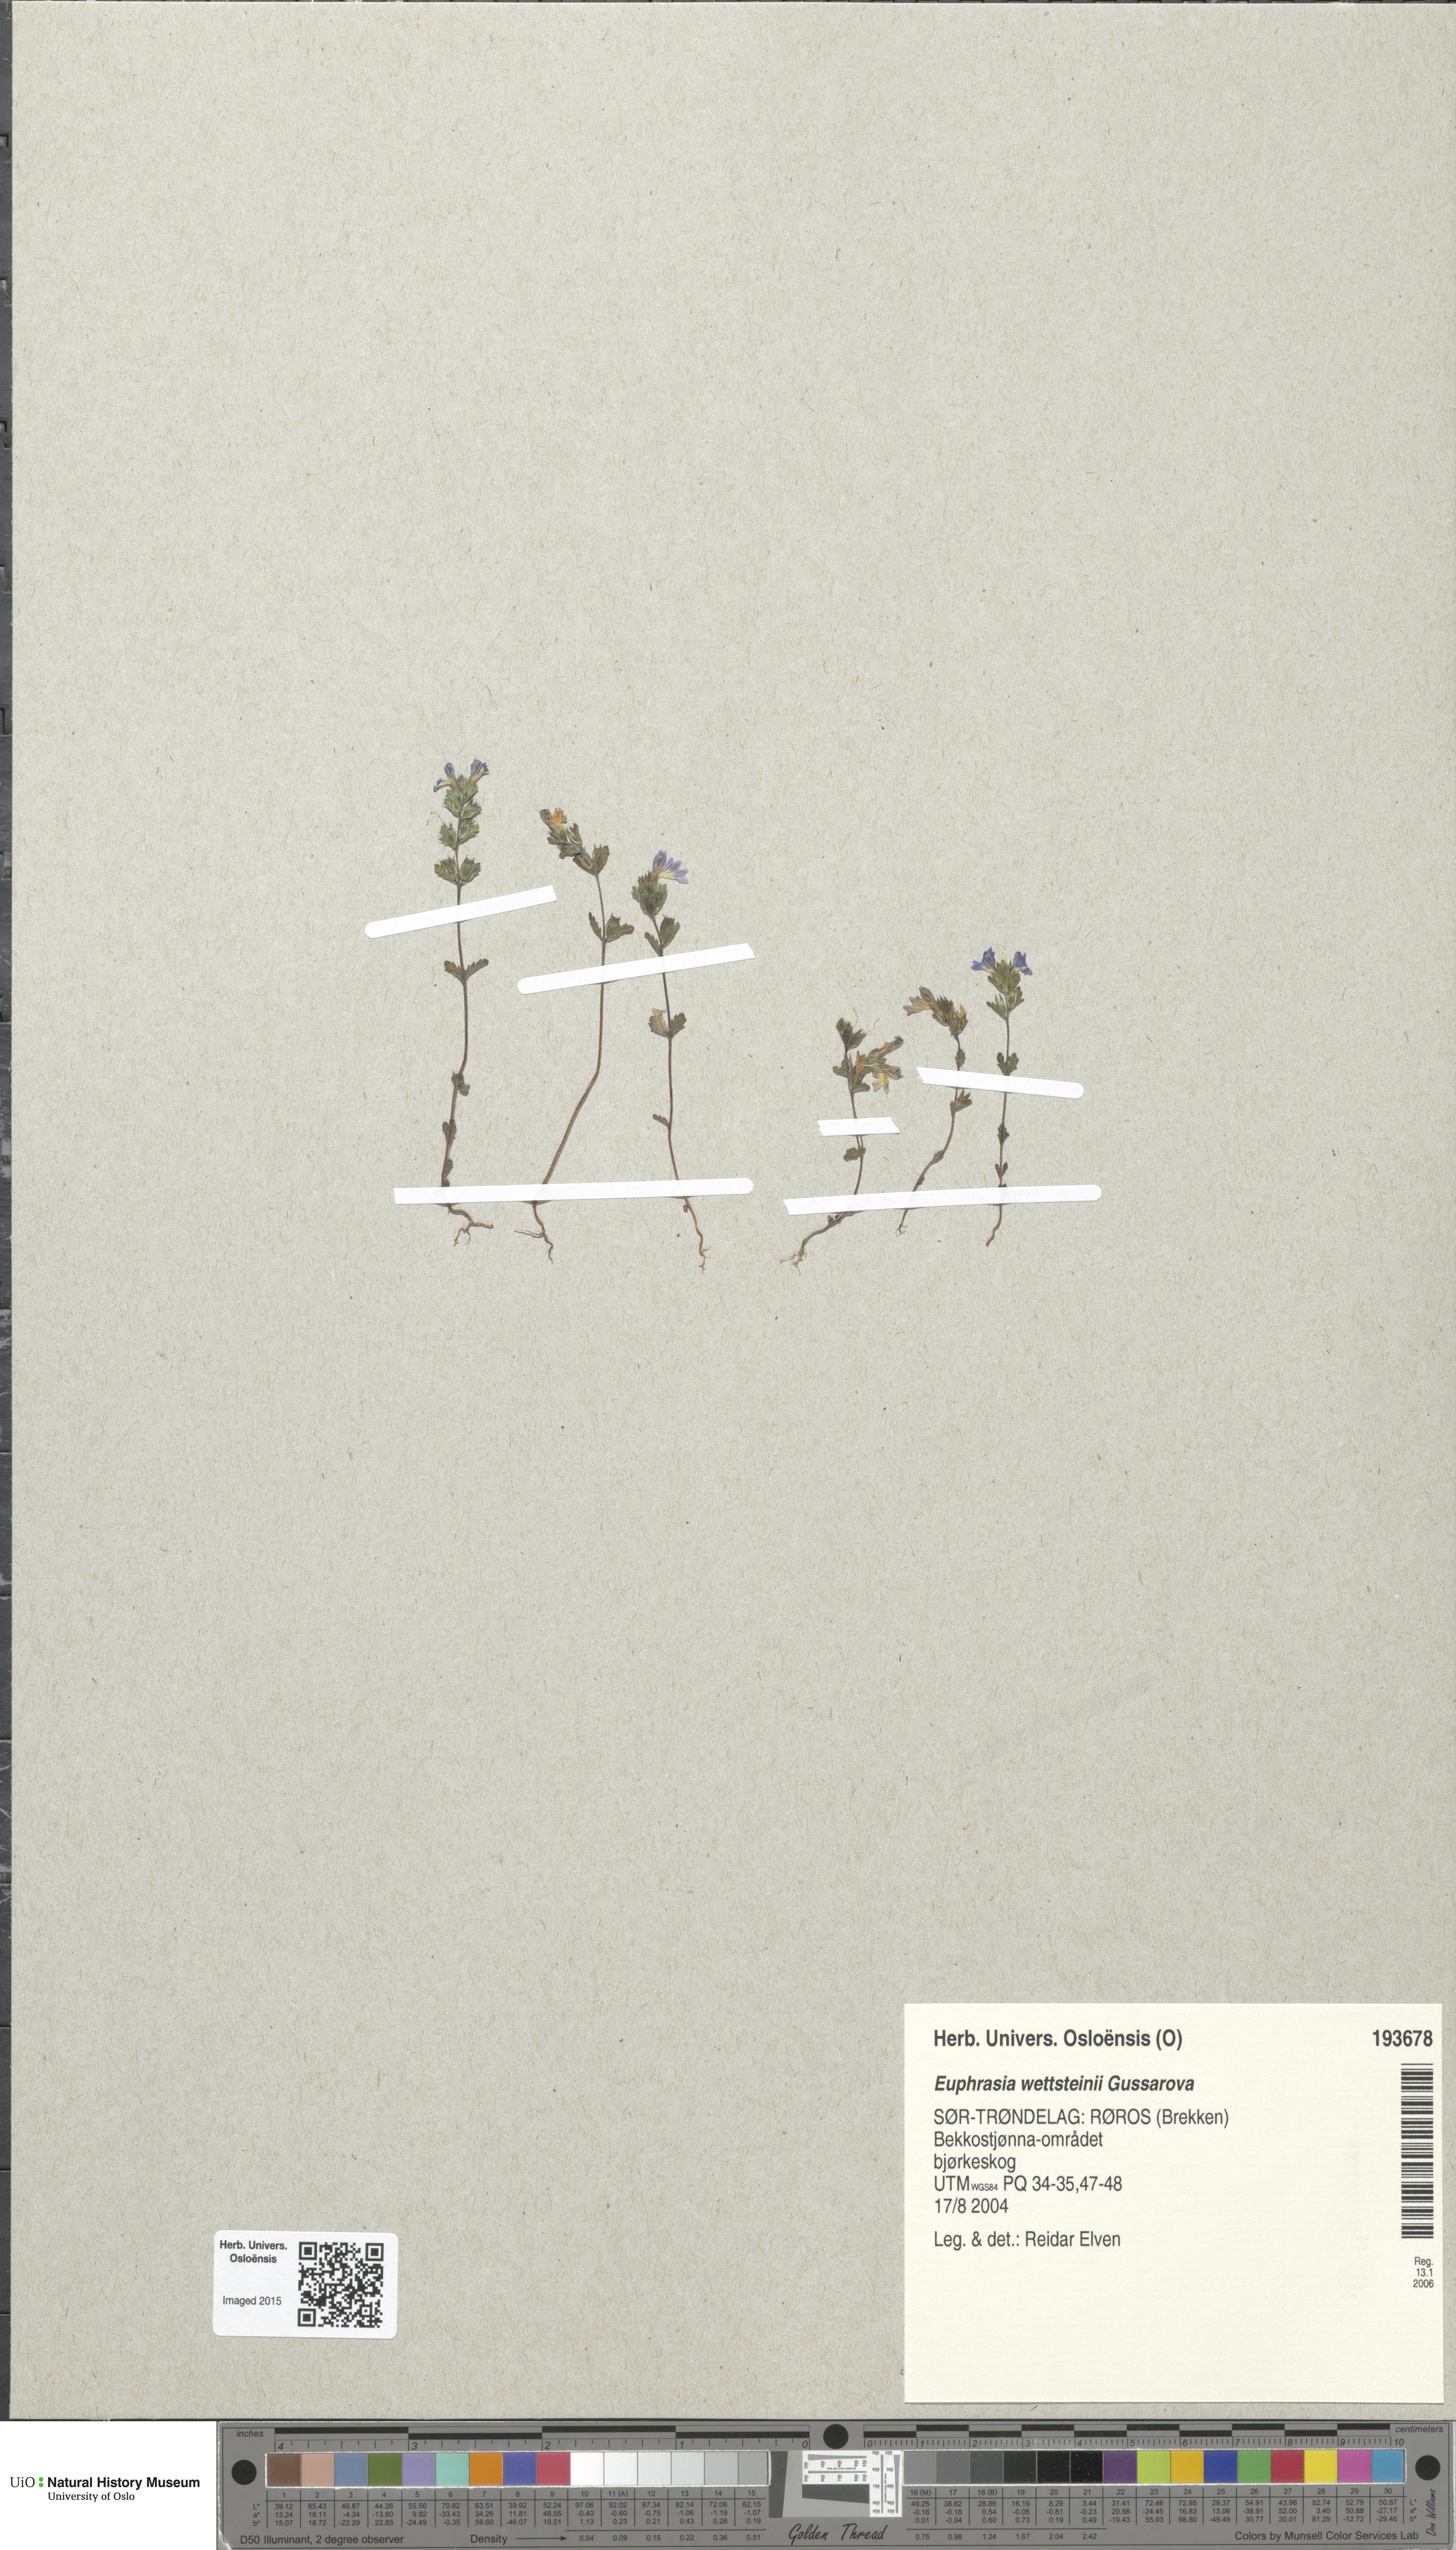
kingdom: Plantae
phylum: Tracheophyta
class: Magnoliopsida
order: Lamiales
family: Orobanchaceae
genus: Euphrasia
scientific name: Euphrasia wettsteinii
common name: Wettstein's eyebright
